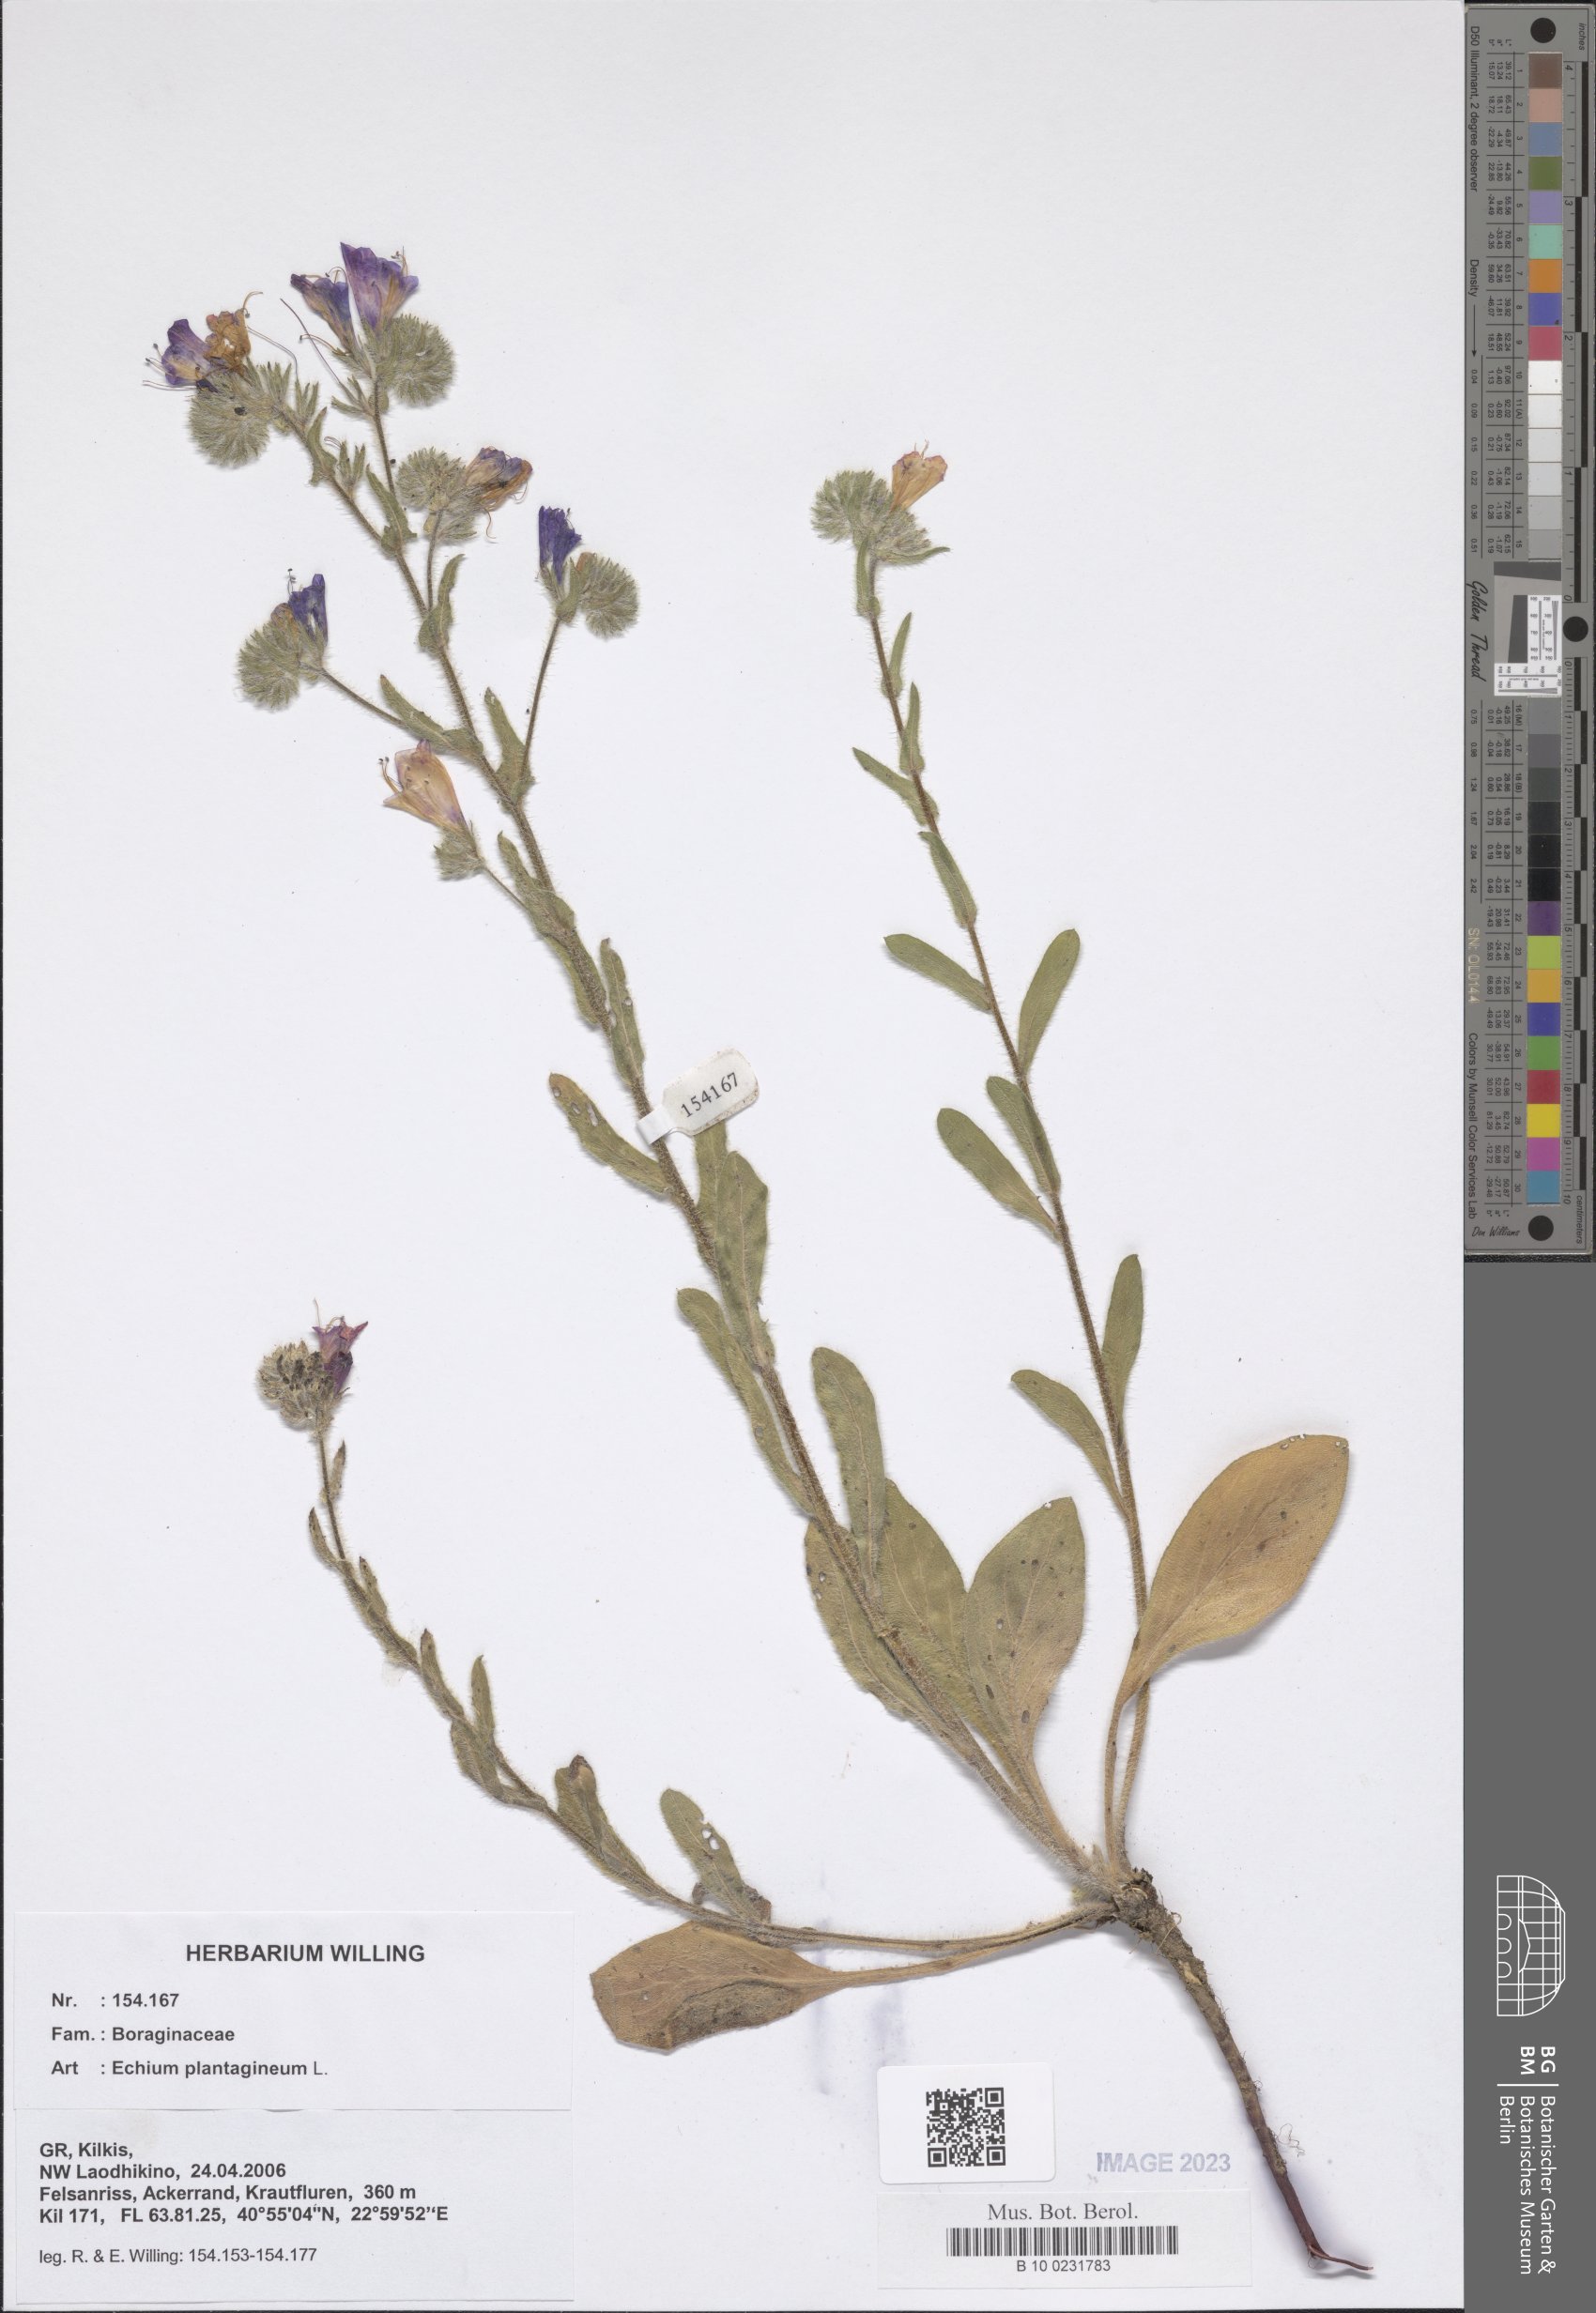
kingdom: Plantae
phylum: Tracheophyta
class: Magnoliopsida
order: Boraginales
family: Boraginaceae
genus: Echium
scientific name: Echium plantagineum
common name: Purple viper's-bugloss
